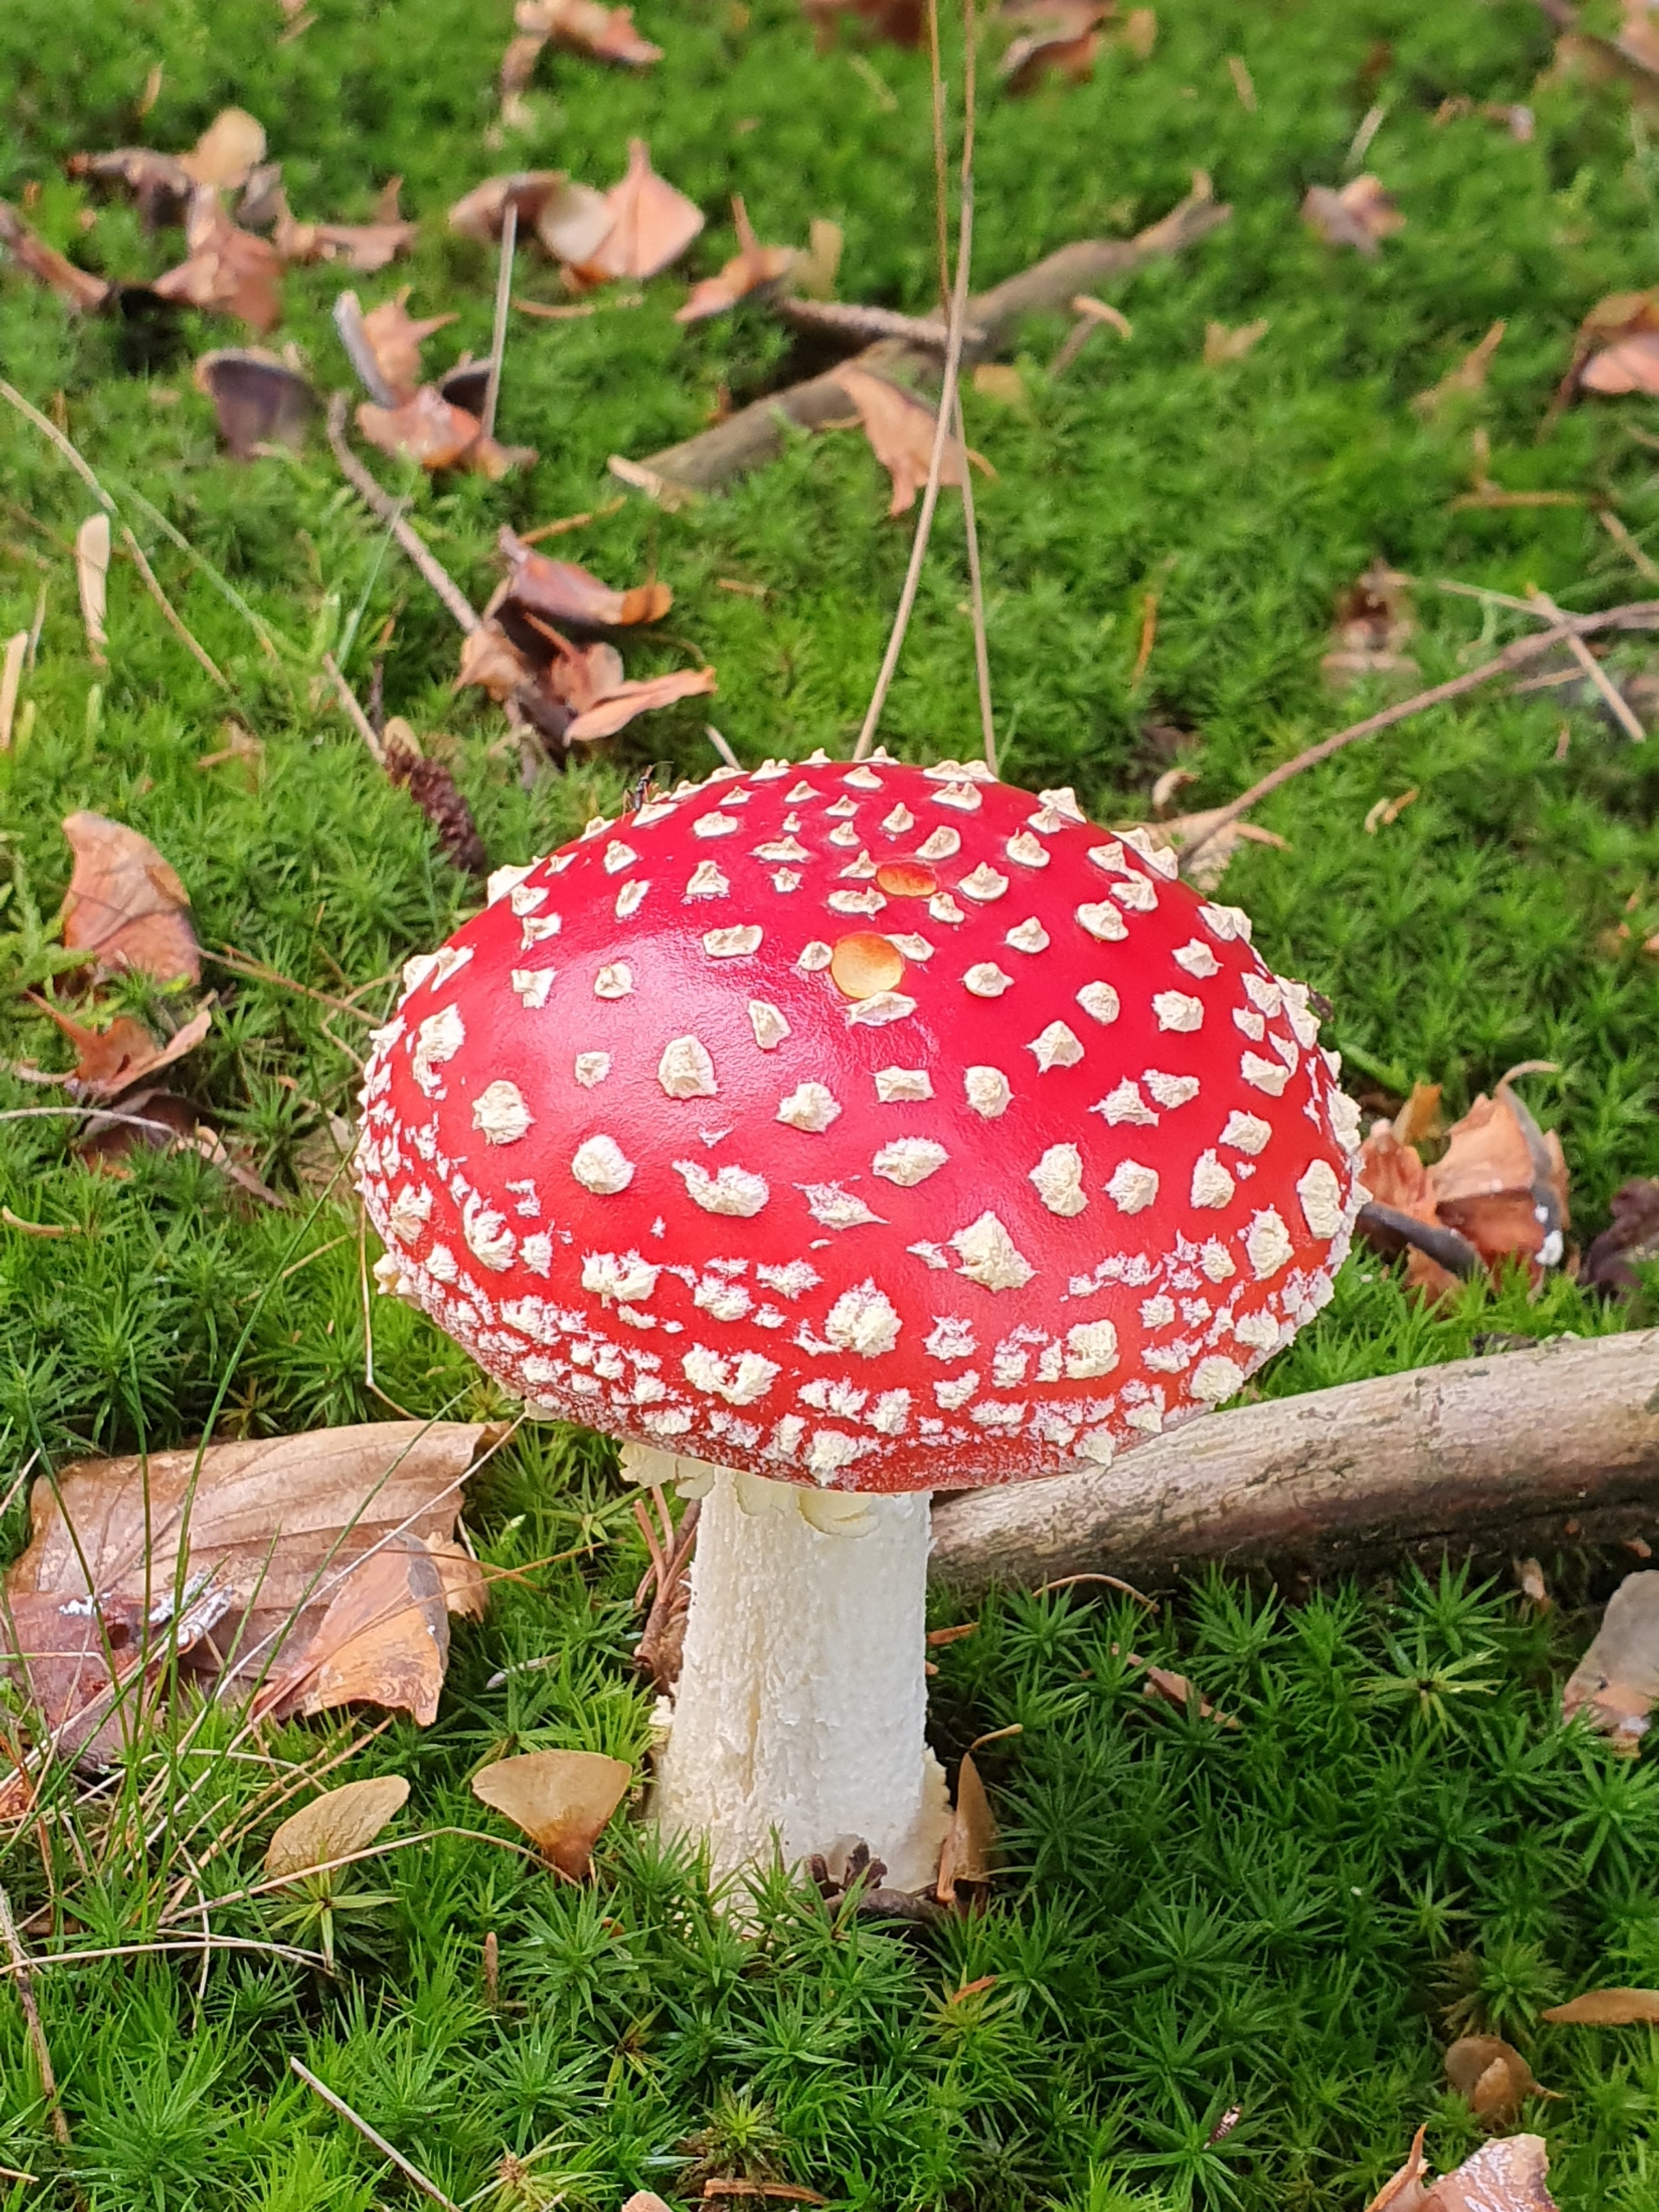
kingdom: Fungi
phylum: Basidiomycota
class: Agaricomycetes
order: Agaricales
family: Amanitaceae
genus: Amanita
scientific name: Amanita muscaria
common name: Rød fluesvamp
